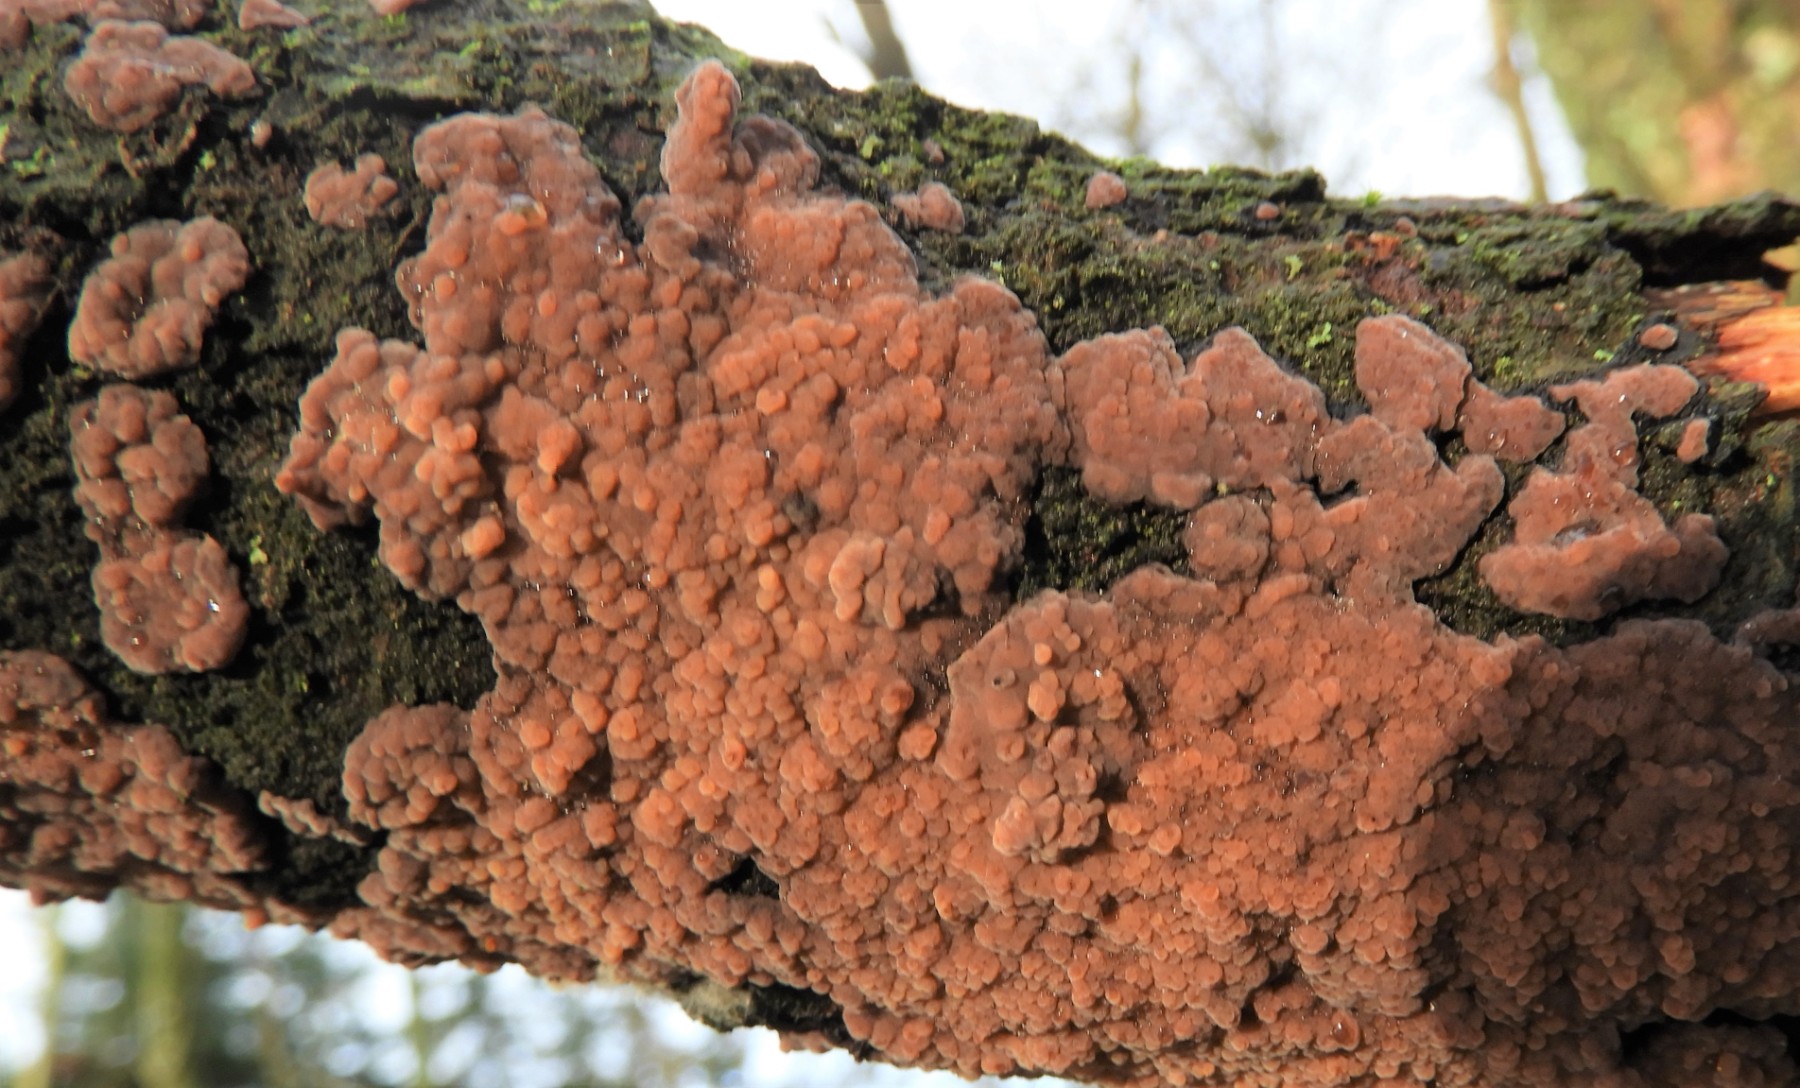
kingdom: Fungi
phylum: Basidiomycota
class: Agaricomycetes
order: Russulales
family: Peniophoraceae
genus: Peniophora
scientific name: Peniophora quercina
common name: ege-voksskind
